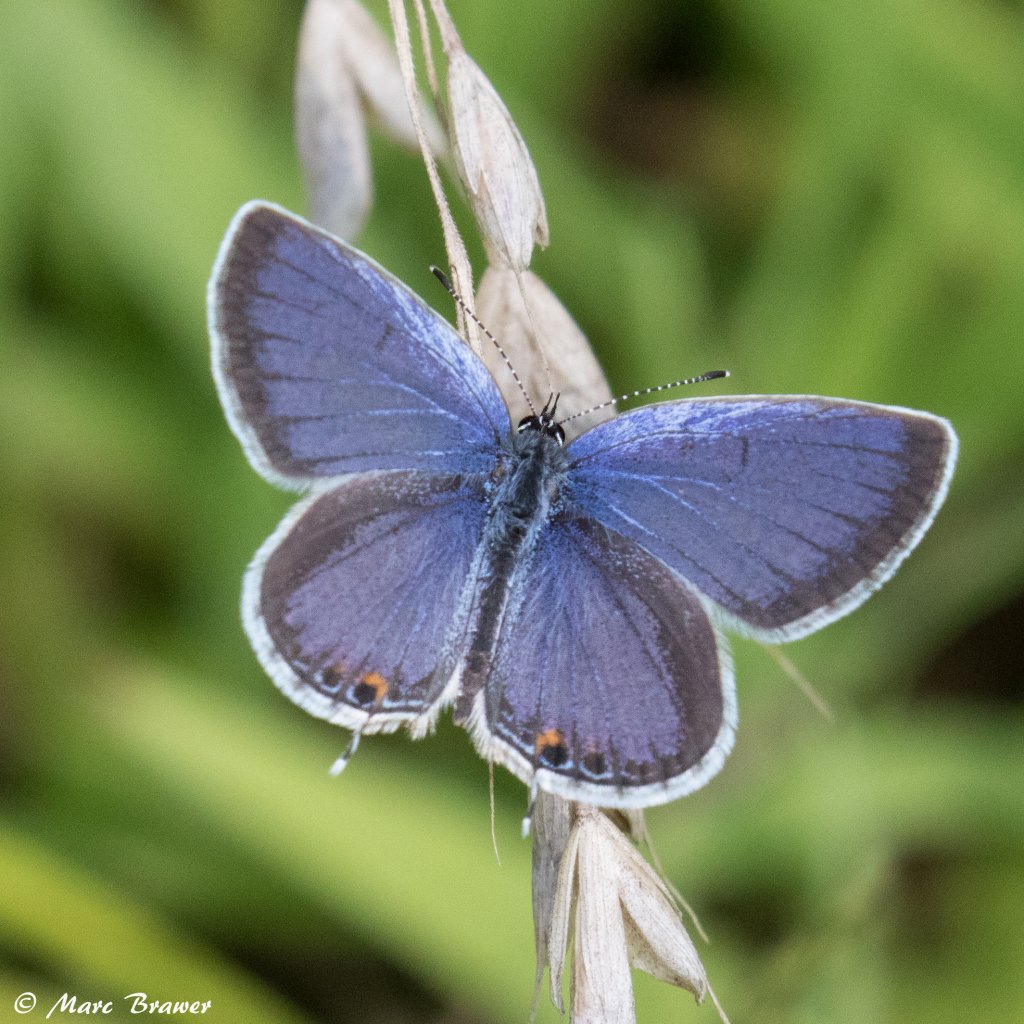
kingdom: Animalia
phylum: Arthropoda
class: Insecta
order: Lepidoptera
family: Lycaenidae
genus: Elkalyce
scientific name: Elkalyce comyntas
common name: Eastern Tailed-Blue
